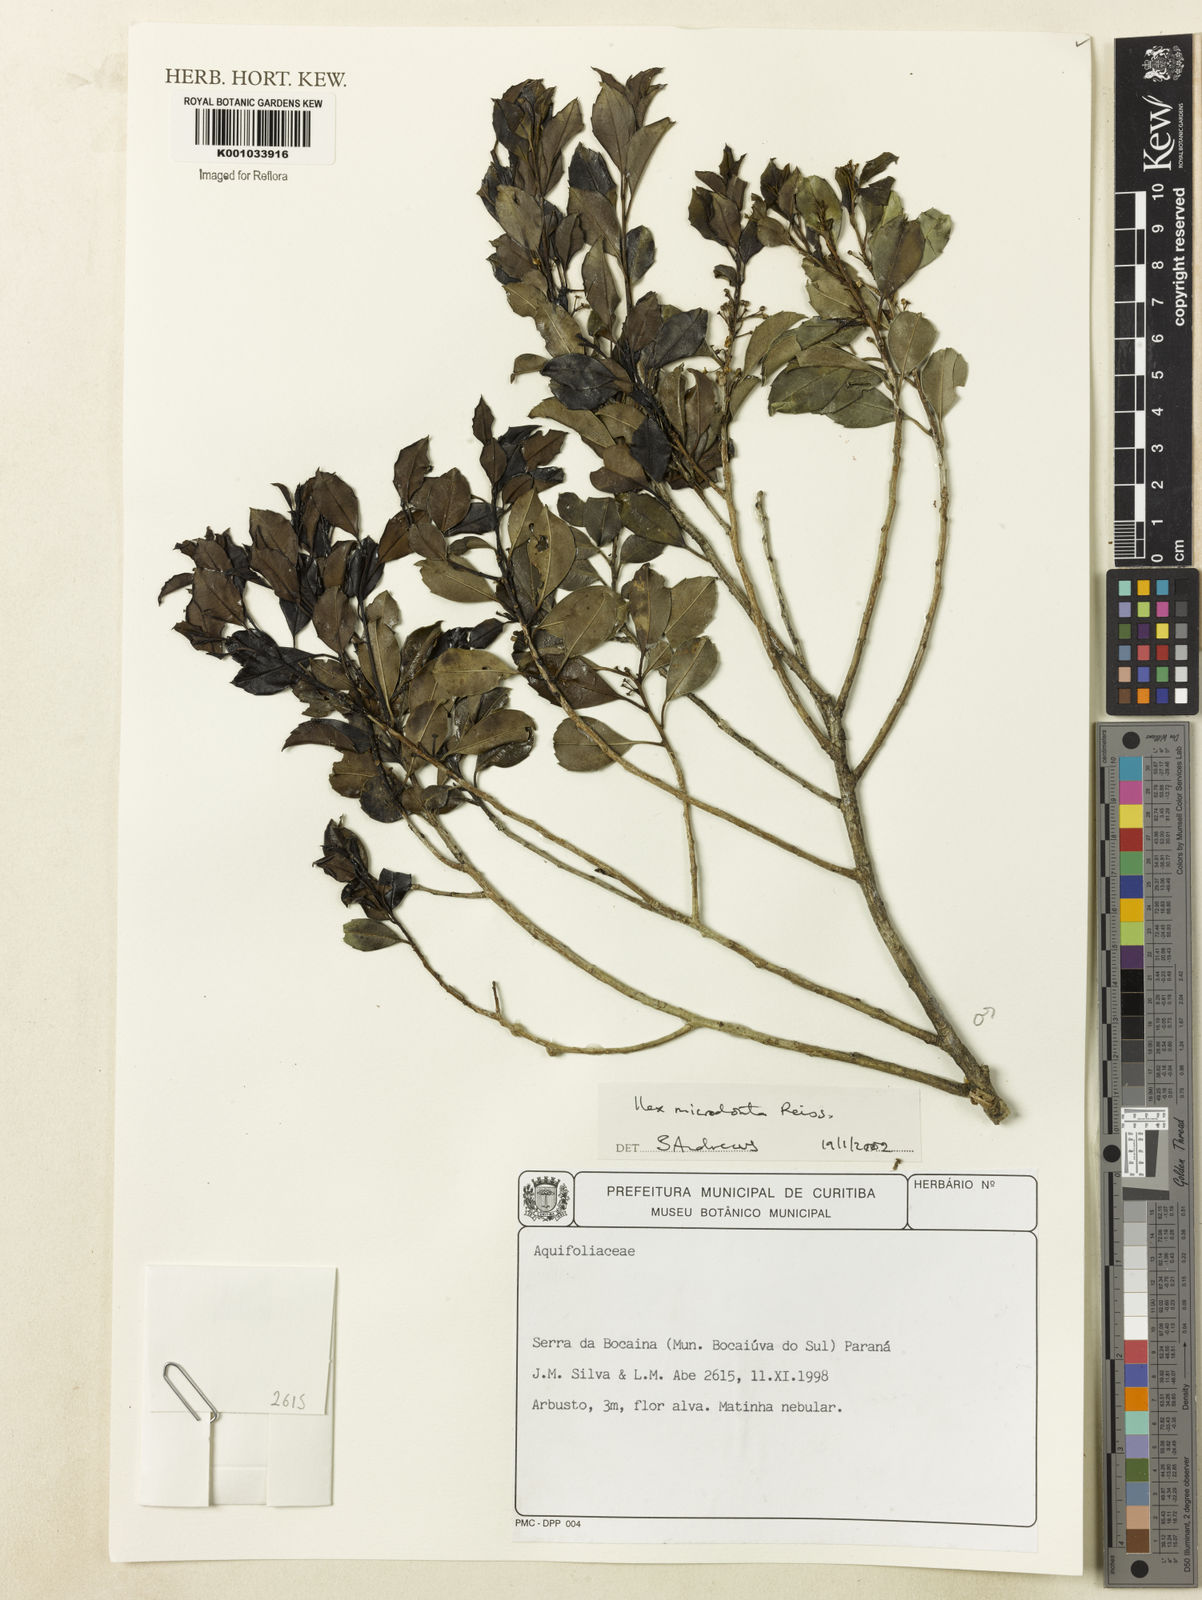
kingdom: Plantae
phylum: Tracheophyta
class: Magnoliopsida
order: Aquifoliales
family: Aquifoliaceae
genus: Ilex
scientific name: Ilex microdonta
